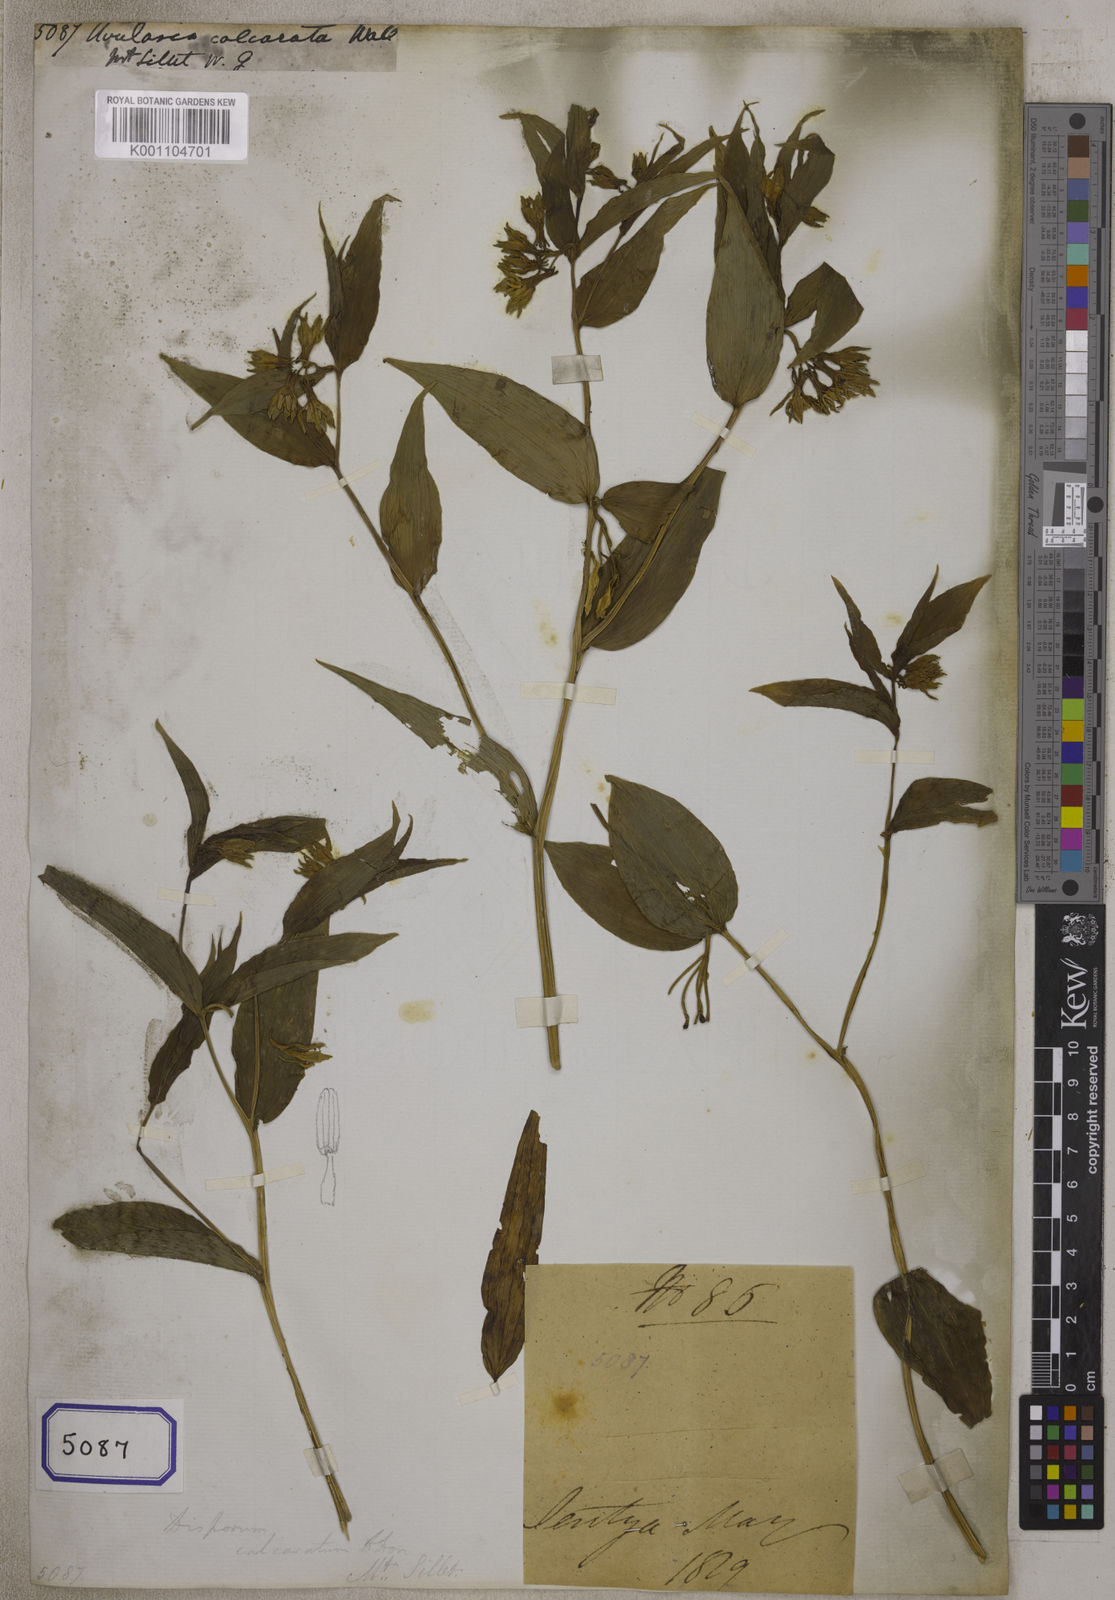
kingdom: Plantae
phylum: Tracheophyta
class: Liliopsida
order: Liliales
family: Colchicaceae
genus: Disporum
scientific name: Disporum calcaratum
